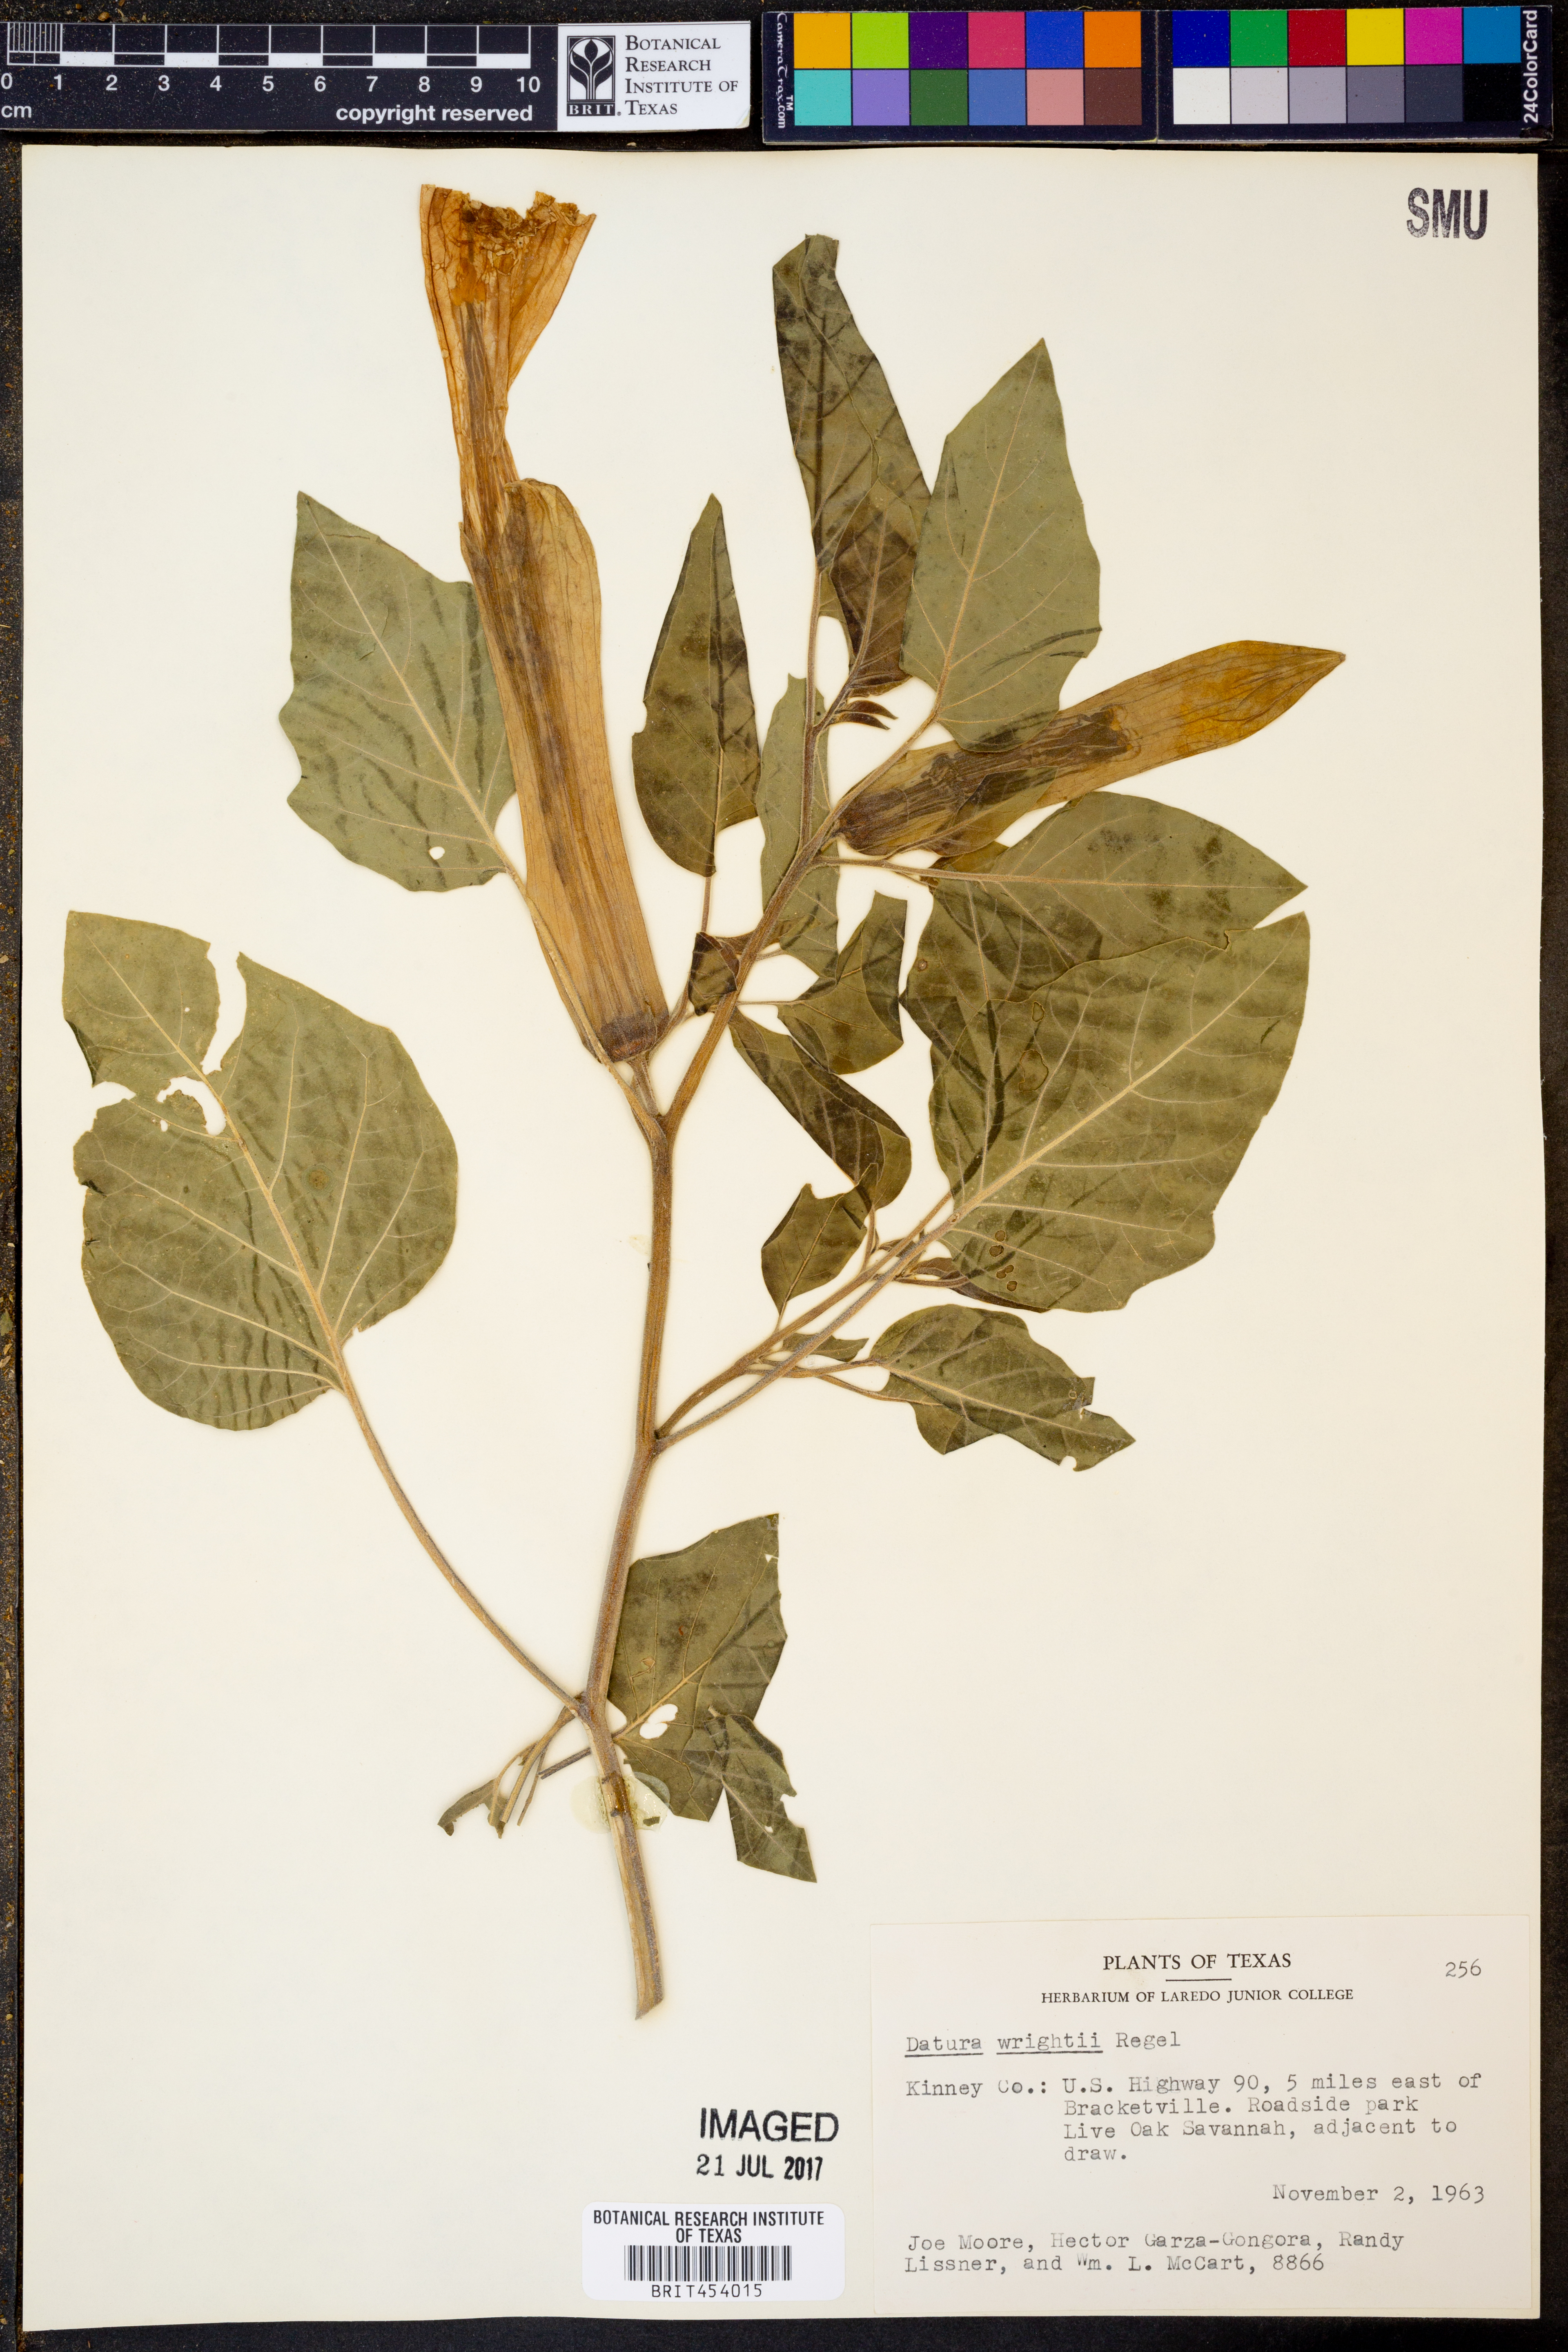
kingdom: Plantae
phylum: Tracheophyta
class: Magnoliopsida
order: Solanales
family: Solanaceae
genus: Datura
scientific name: Datura wrightii
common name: Sacred thorn-apple
